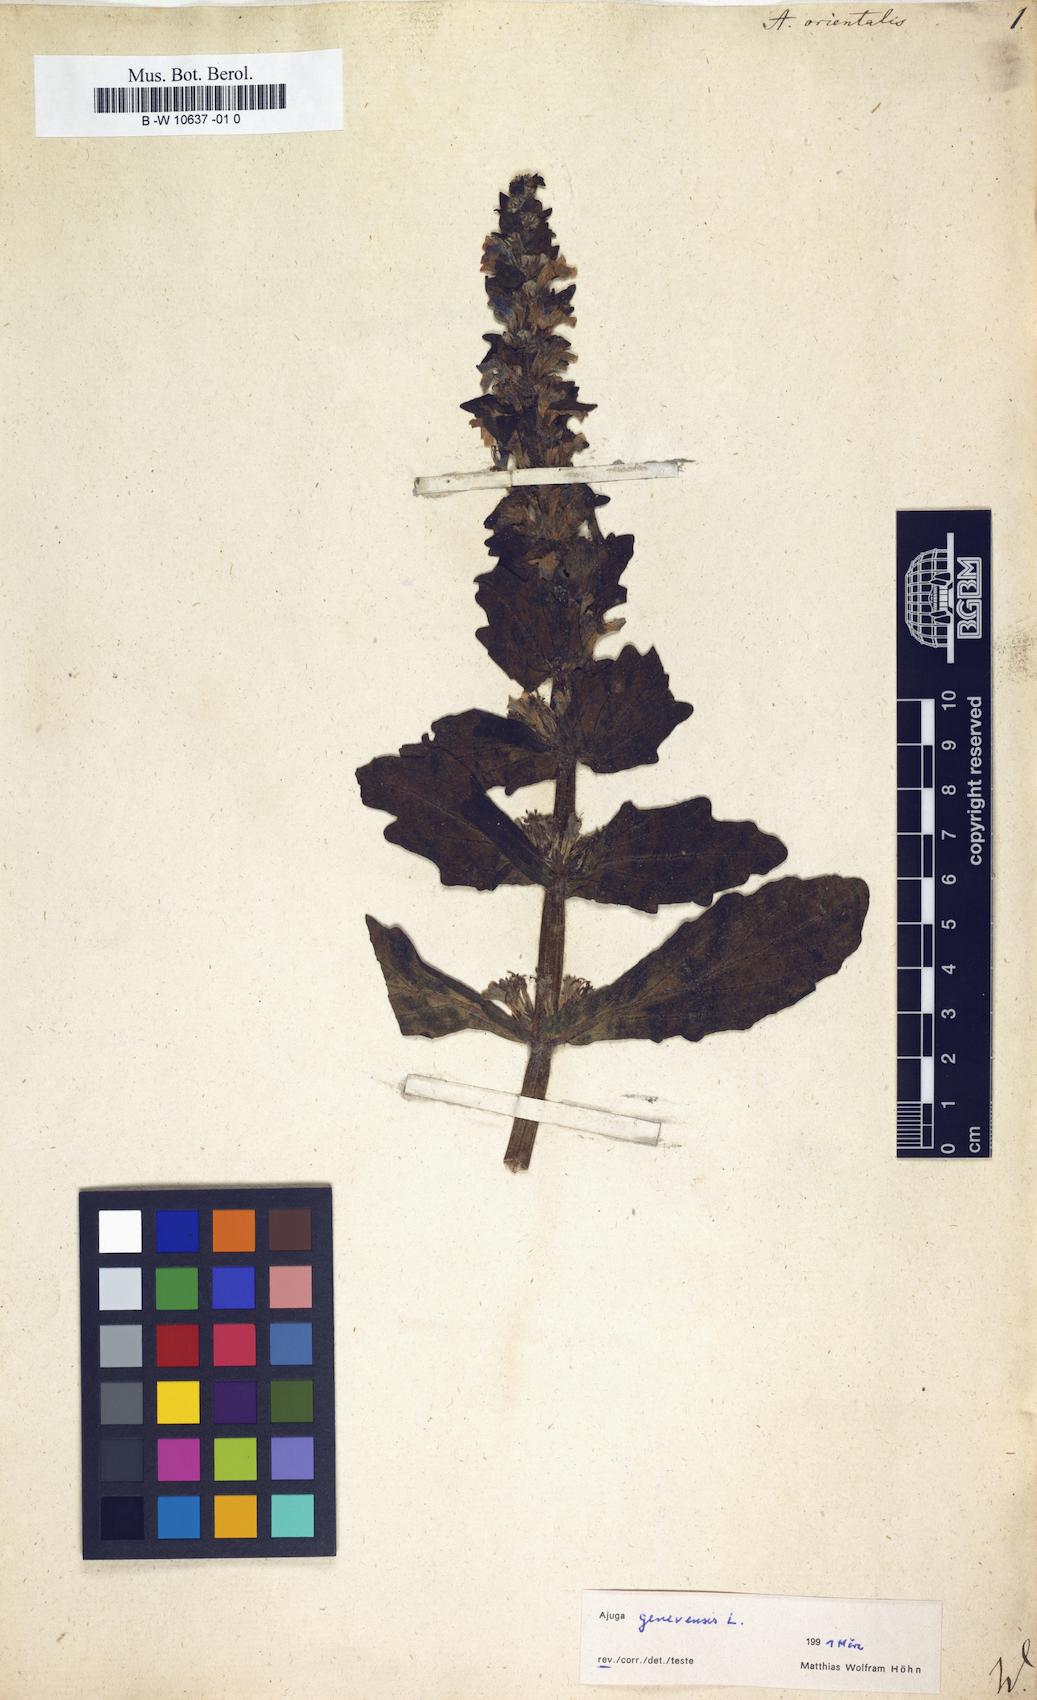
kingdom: Plantae
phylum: Tracheophyta
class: Magnoliopsida
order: Lamiales
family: Lamiaceae
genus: Ajuga
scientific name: Ajuga orientalis
